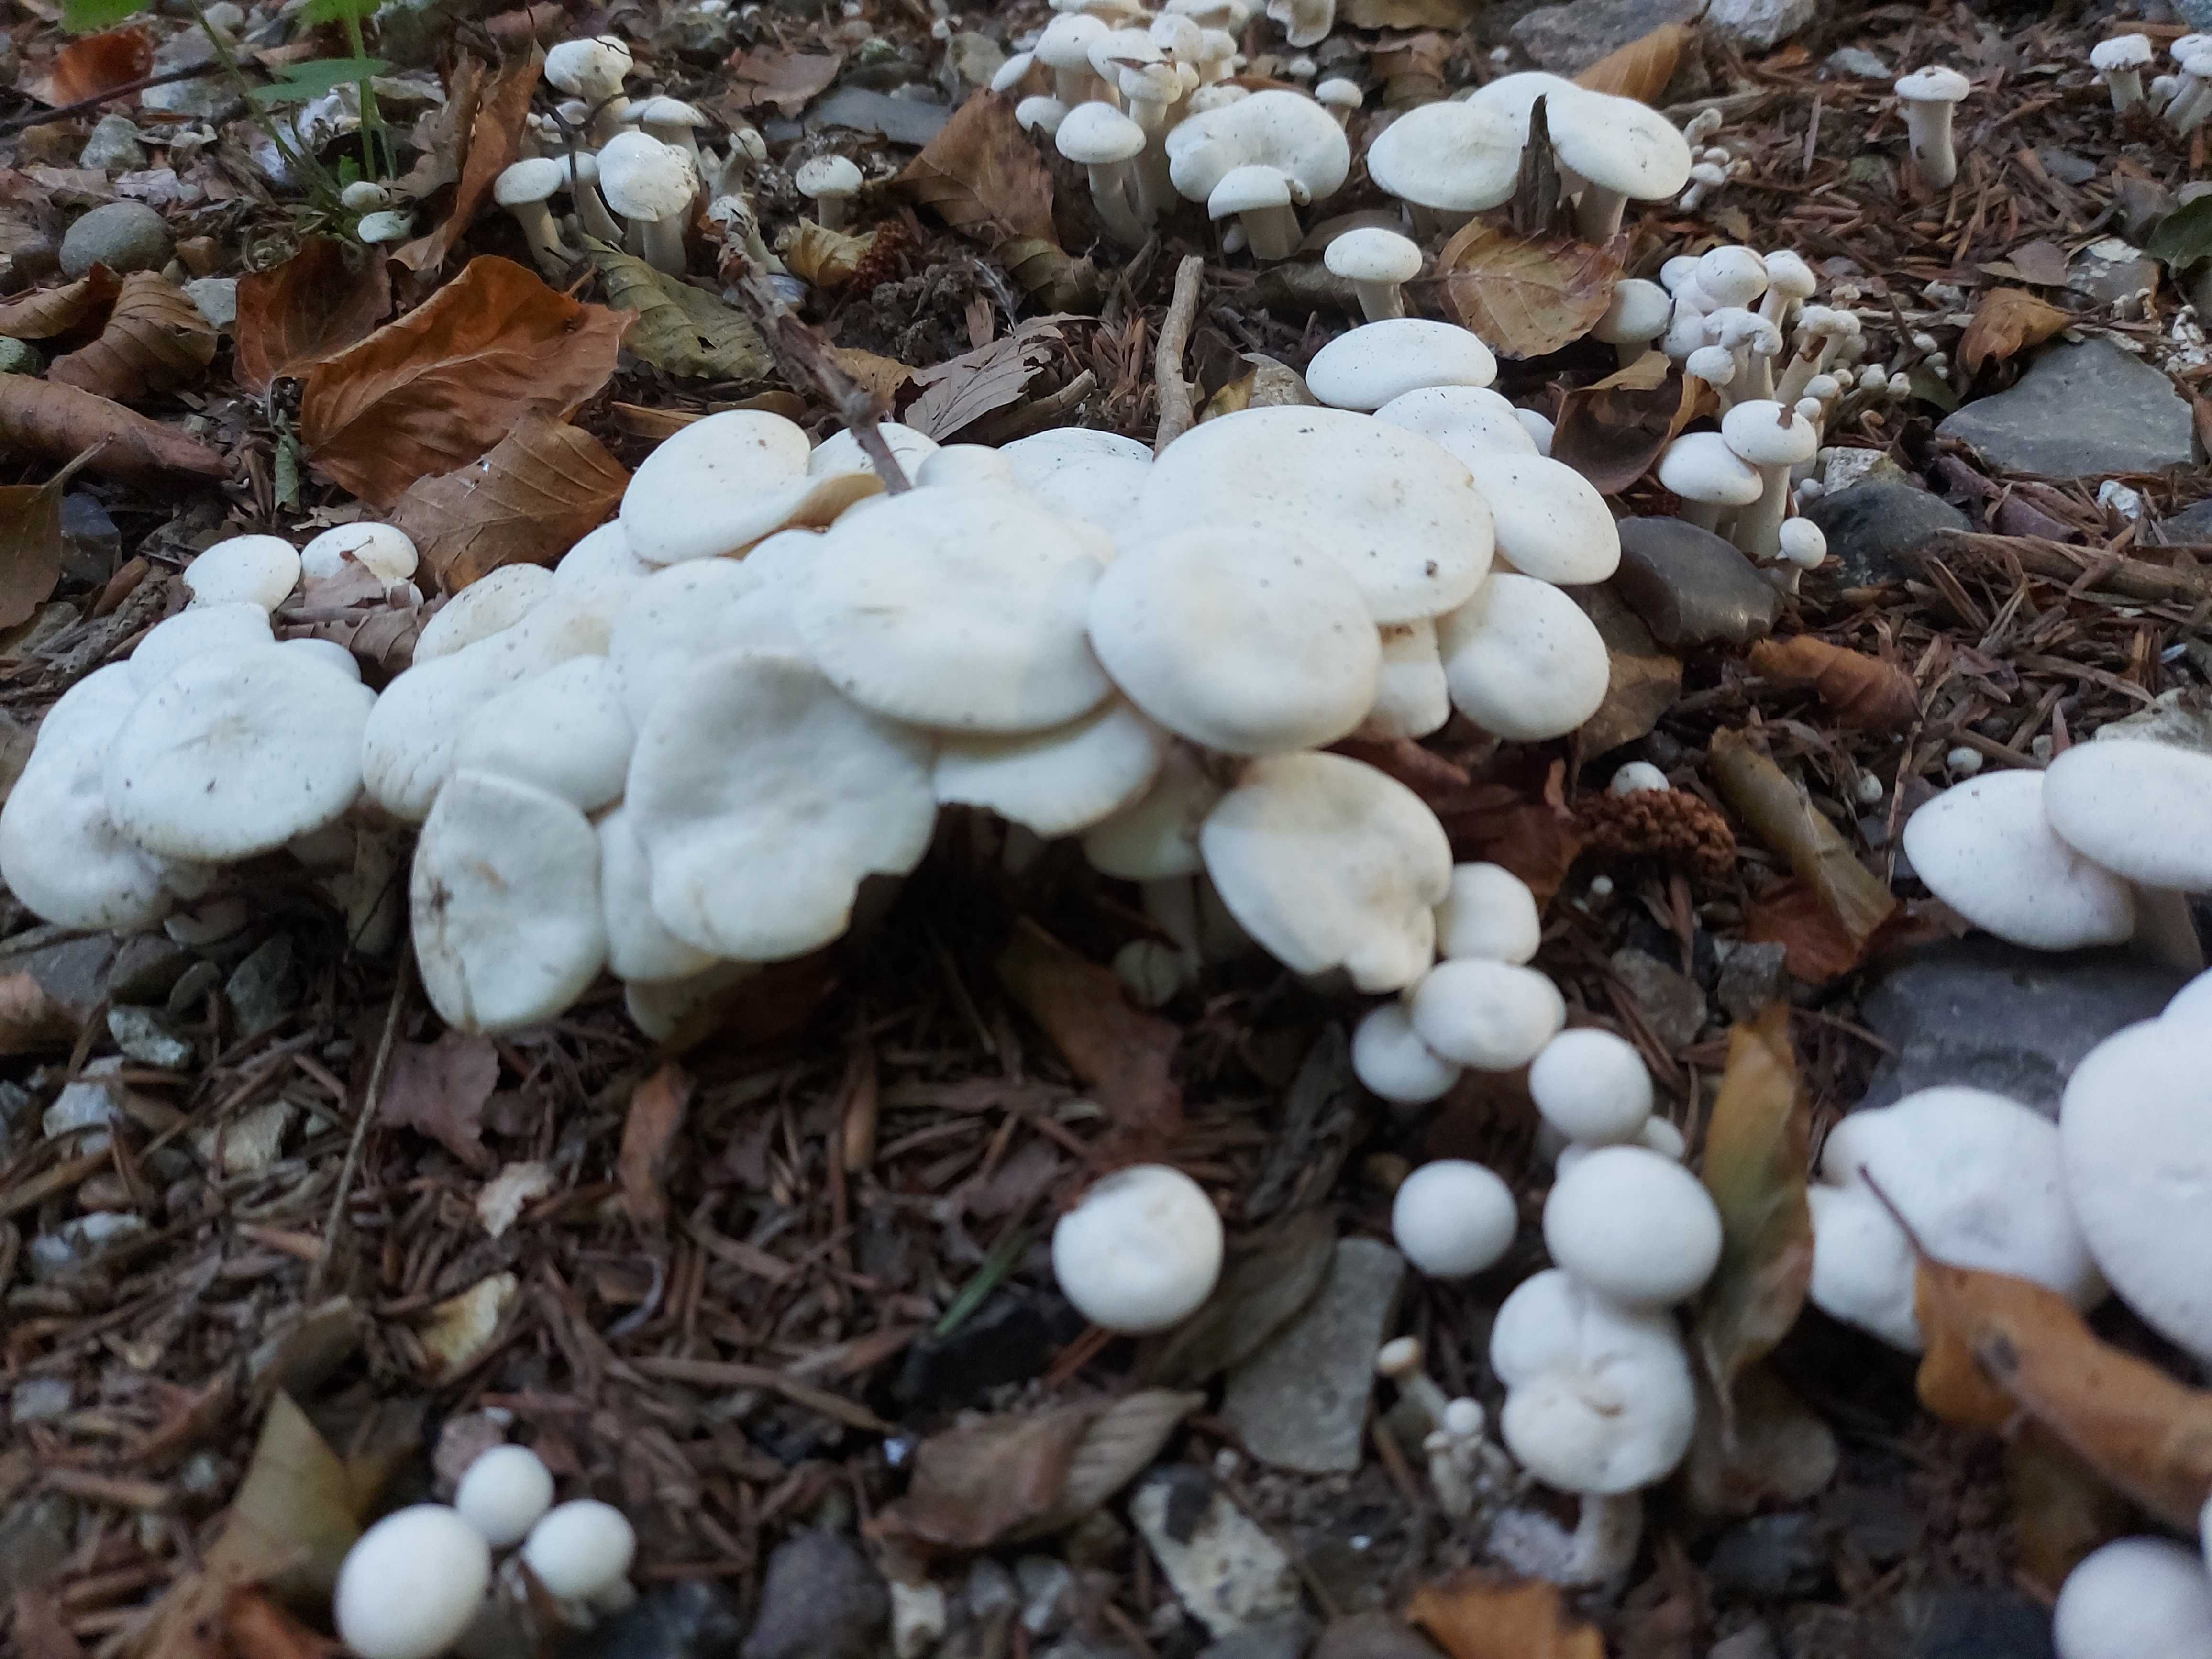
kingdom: Fungi
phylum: Basidiomycota
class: Agaricomycetes
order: Agaricales
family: Tricholomataceae
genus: Leucocybe
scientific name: Leucocybe connata
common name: knippe-tragthat
